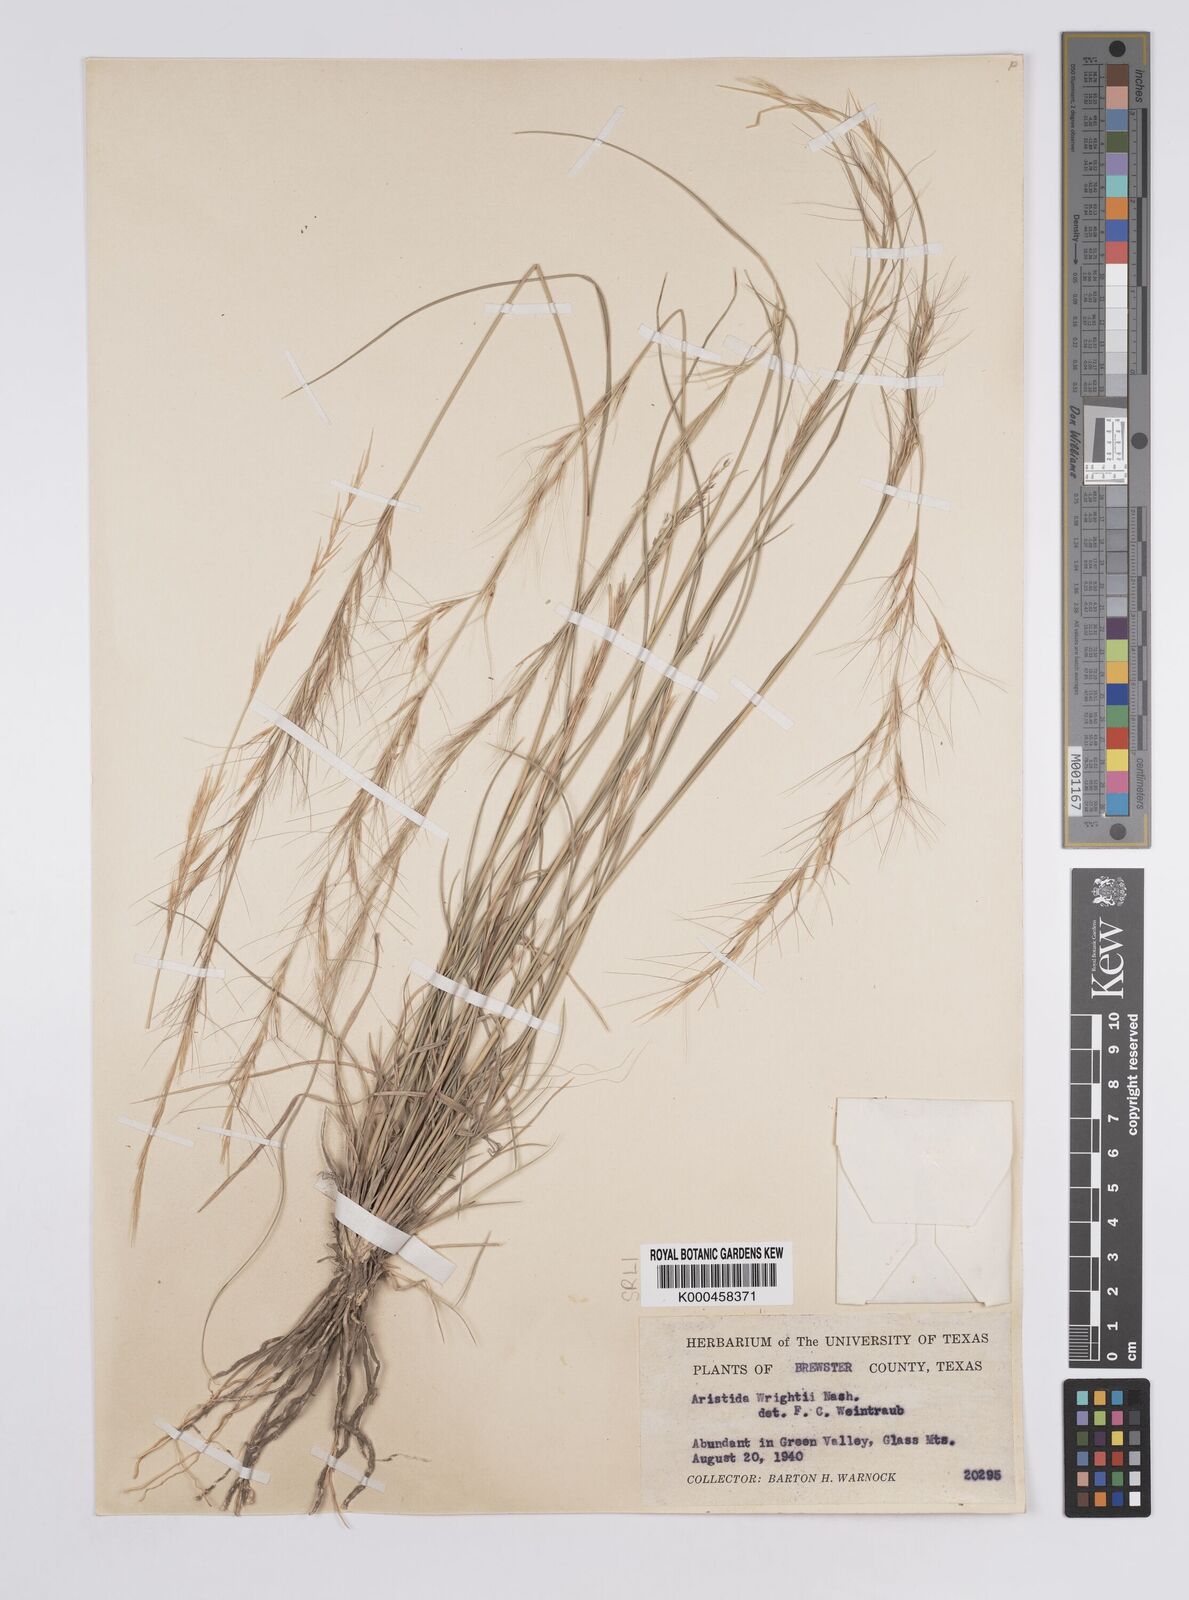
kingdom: Plantae
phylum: Tracheophyta
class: Liliopsida
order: Poales
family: Poaceae
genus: Aristida
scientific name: Aristida wrightii
